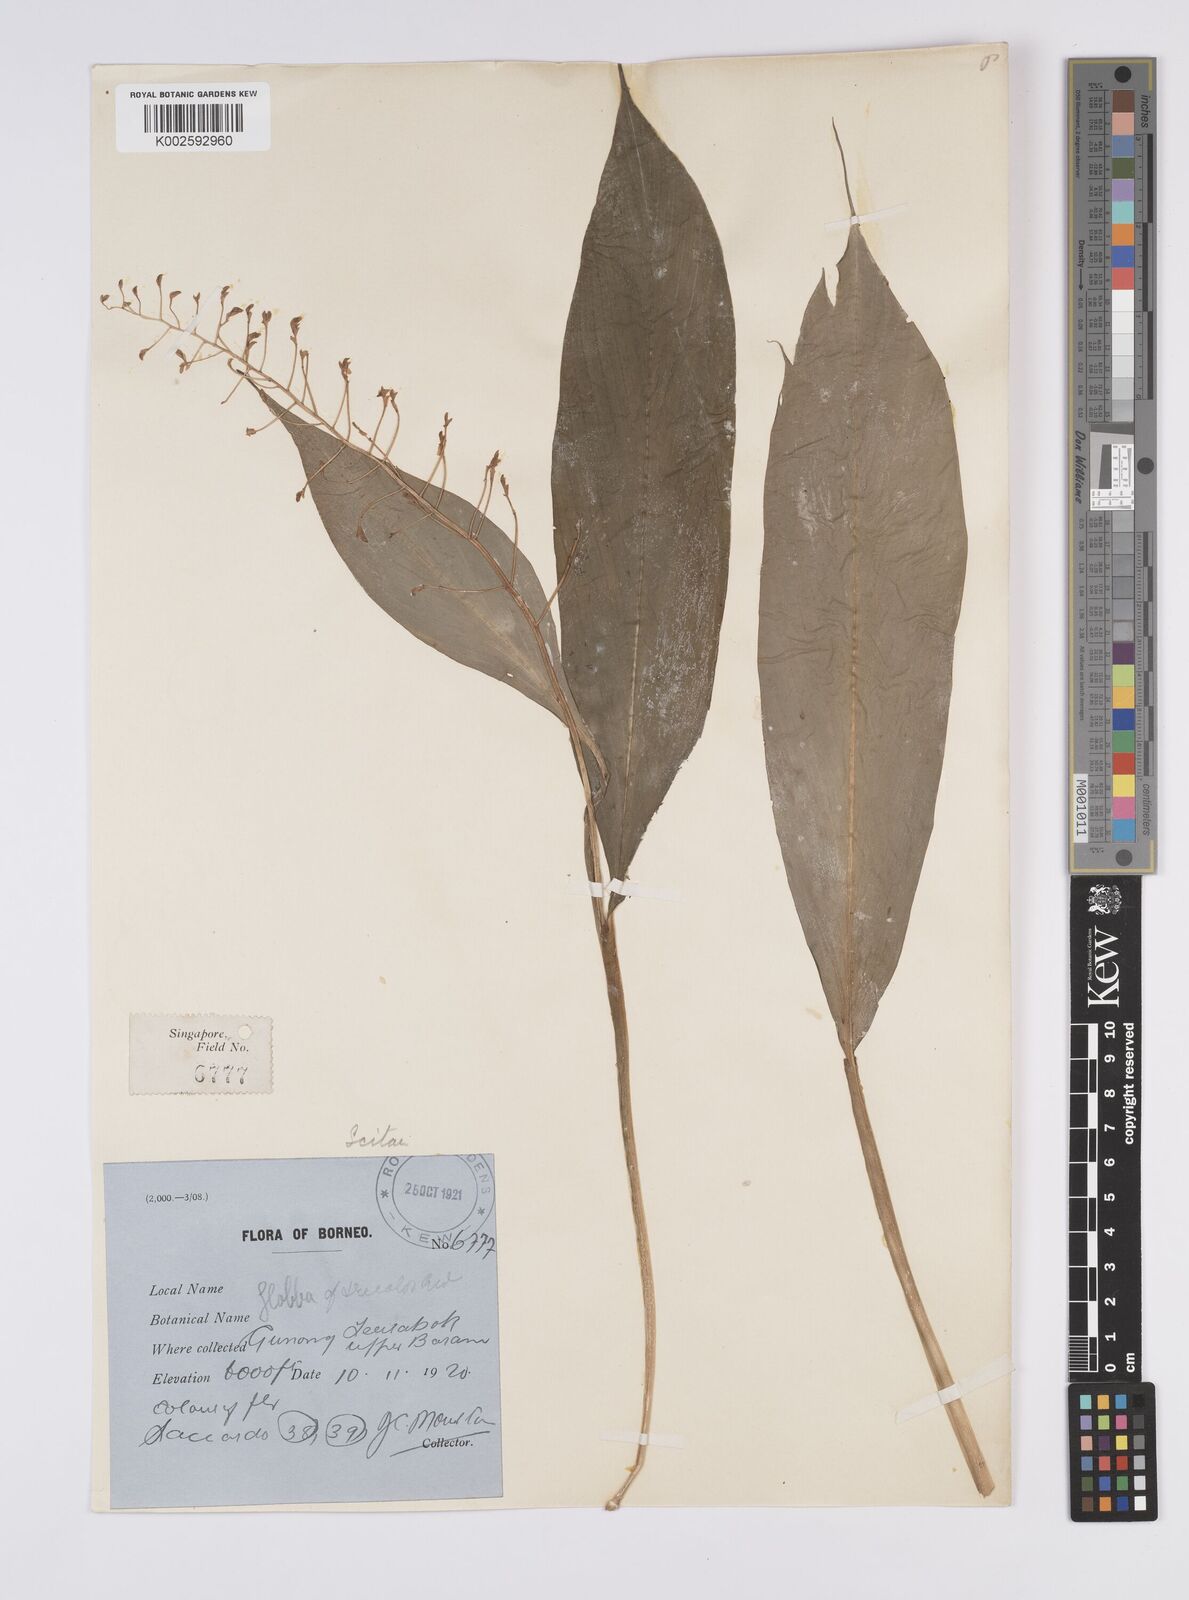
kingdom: Plantae
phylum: Tracheophyta
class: Liliopsida
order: Zingiberales
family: Zingiberaceae
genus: Globba
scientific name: Globba tricolor
